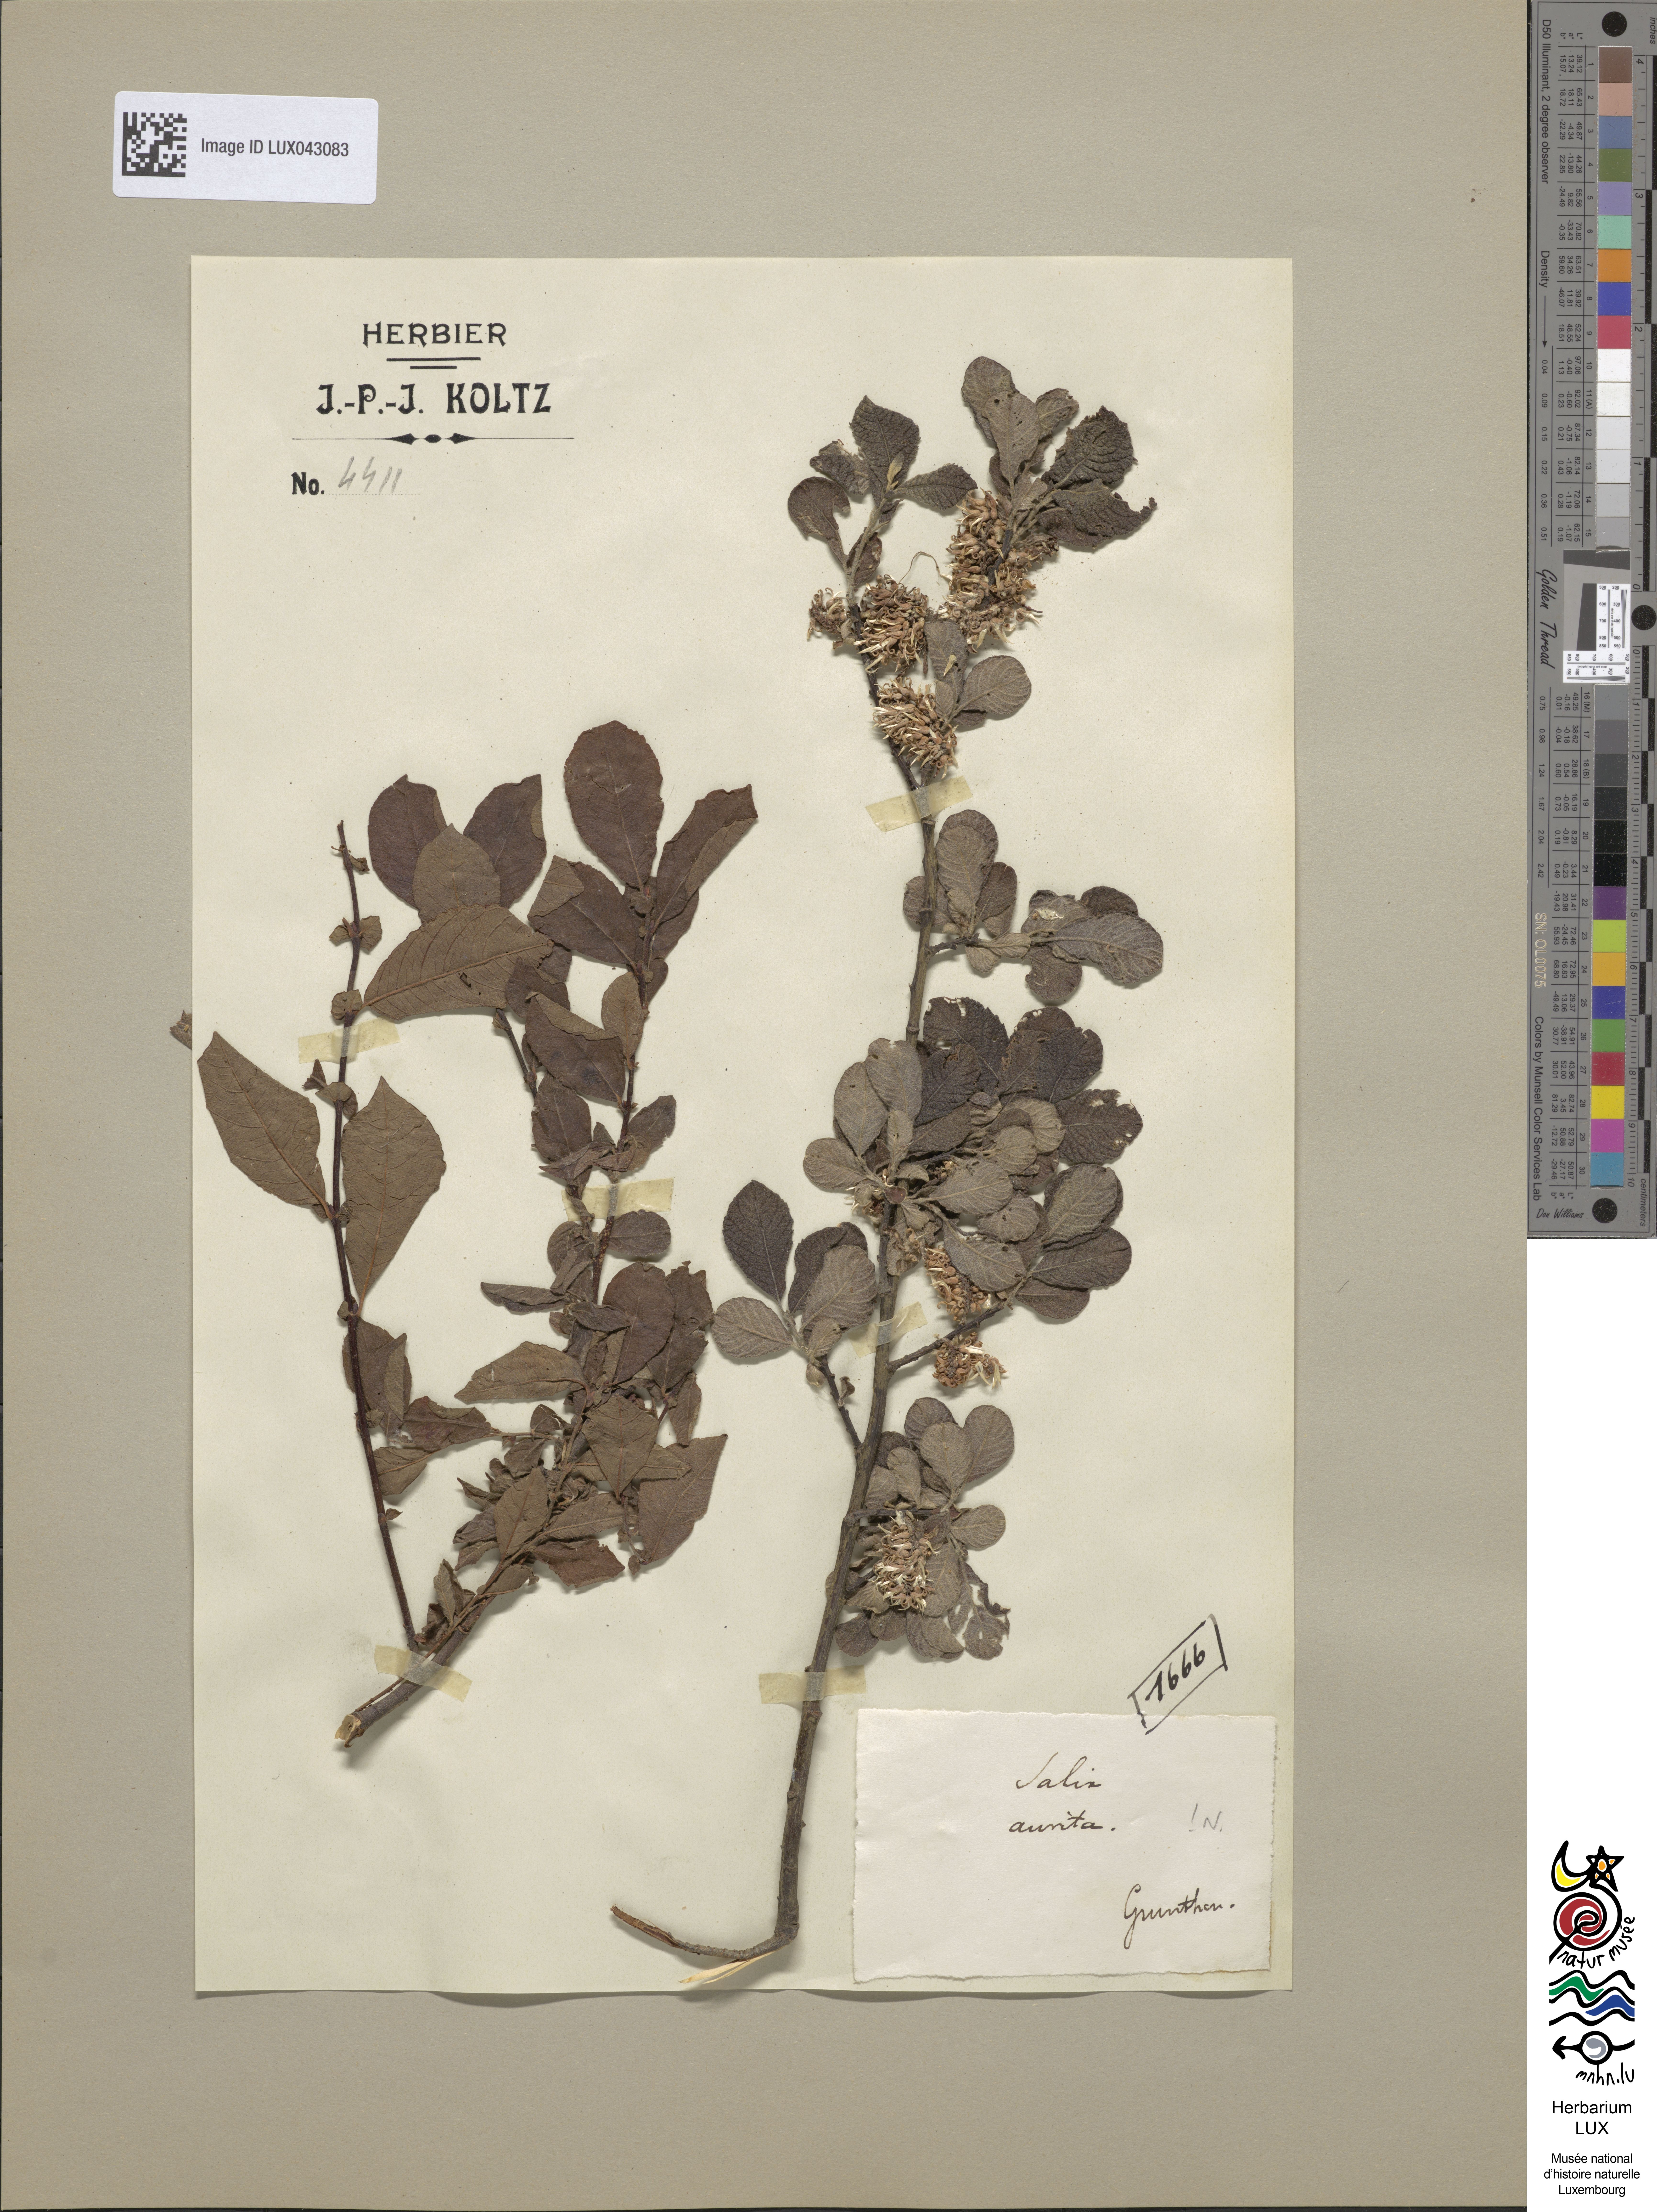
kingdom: Plantae
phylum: Tracheophyta
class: Magnoliopsida
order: Malpighiales
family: Salicaceae
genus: Salix
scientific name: Salix aurita
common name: Eared willow
